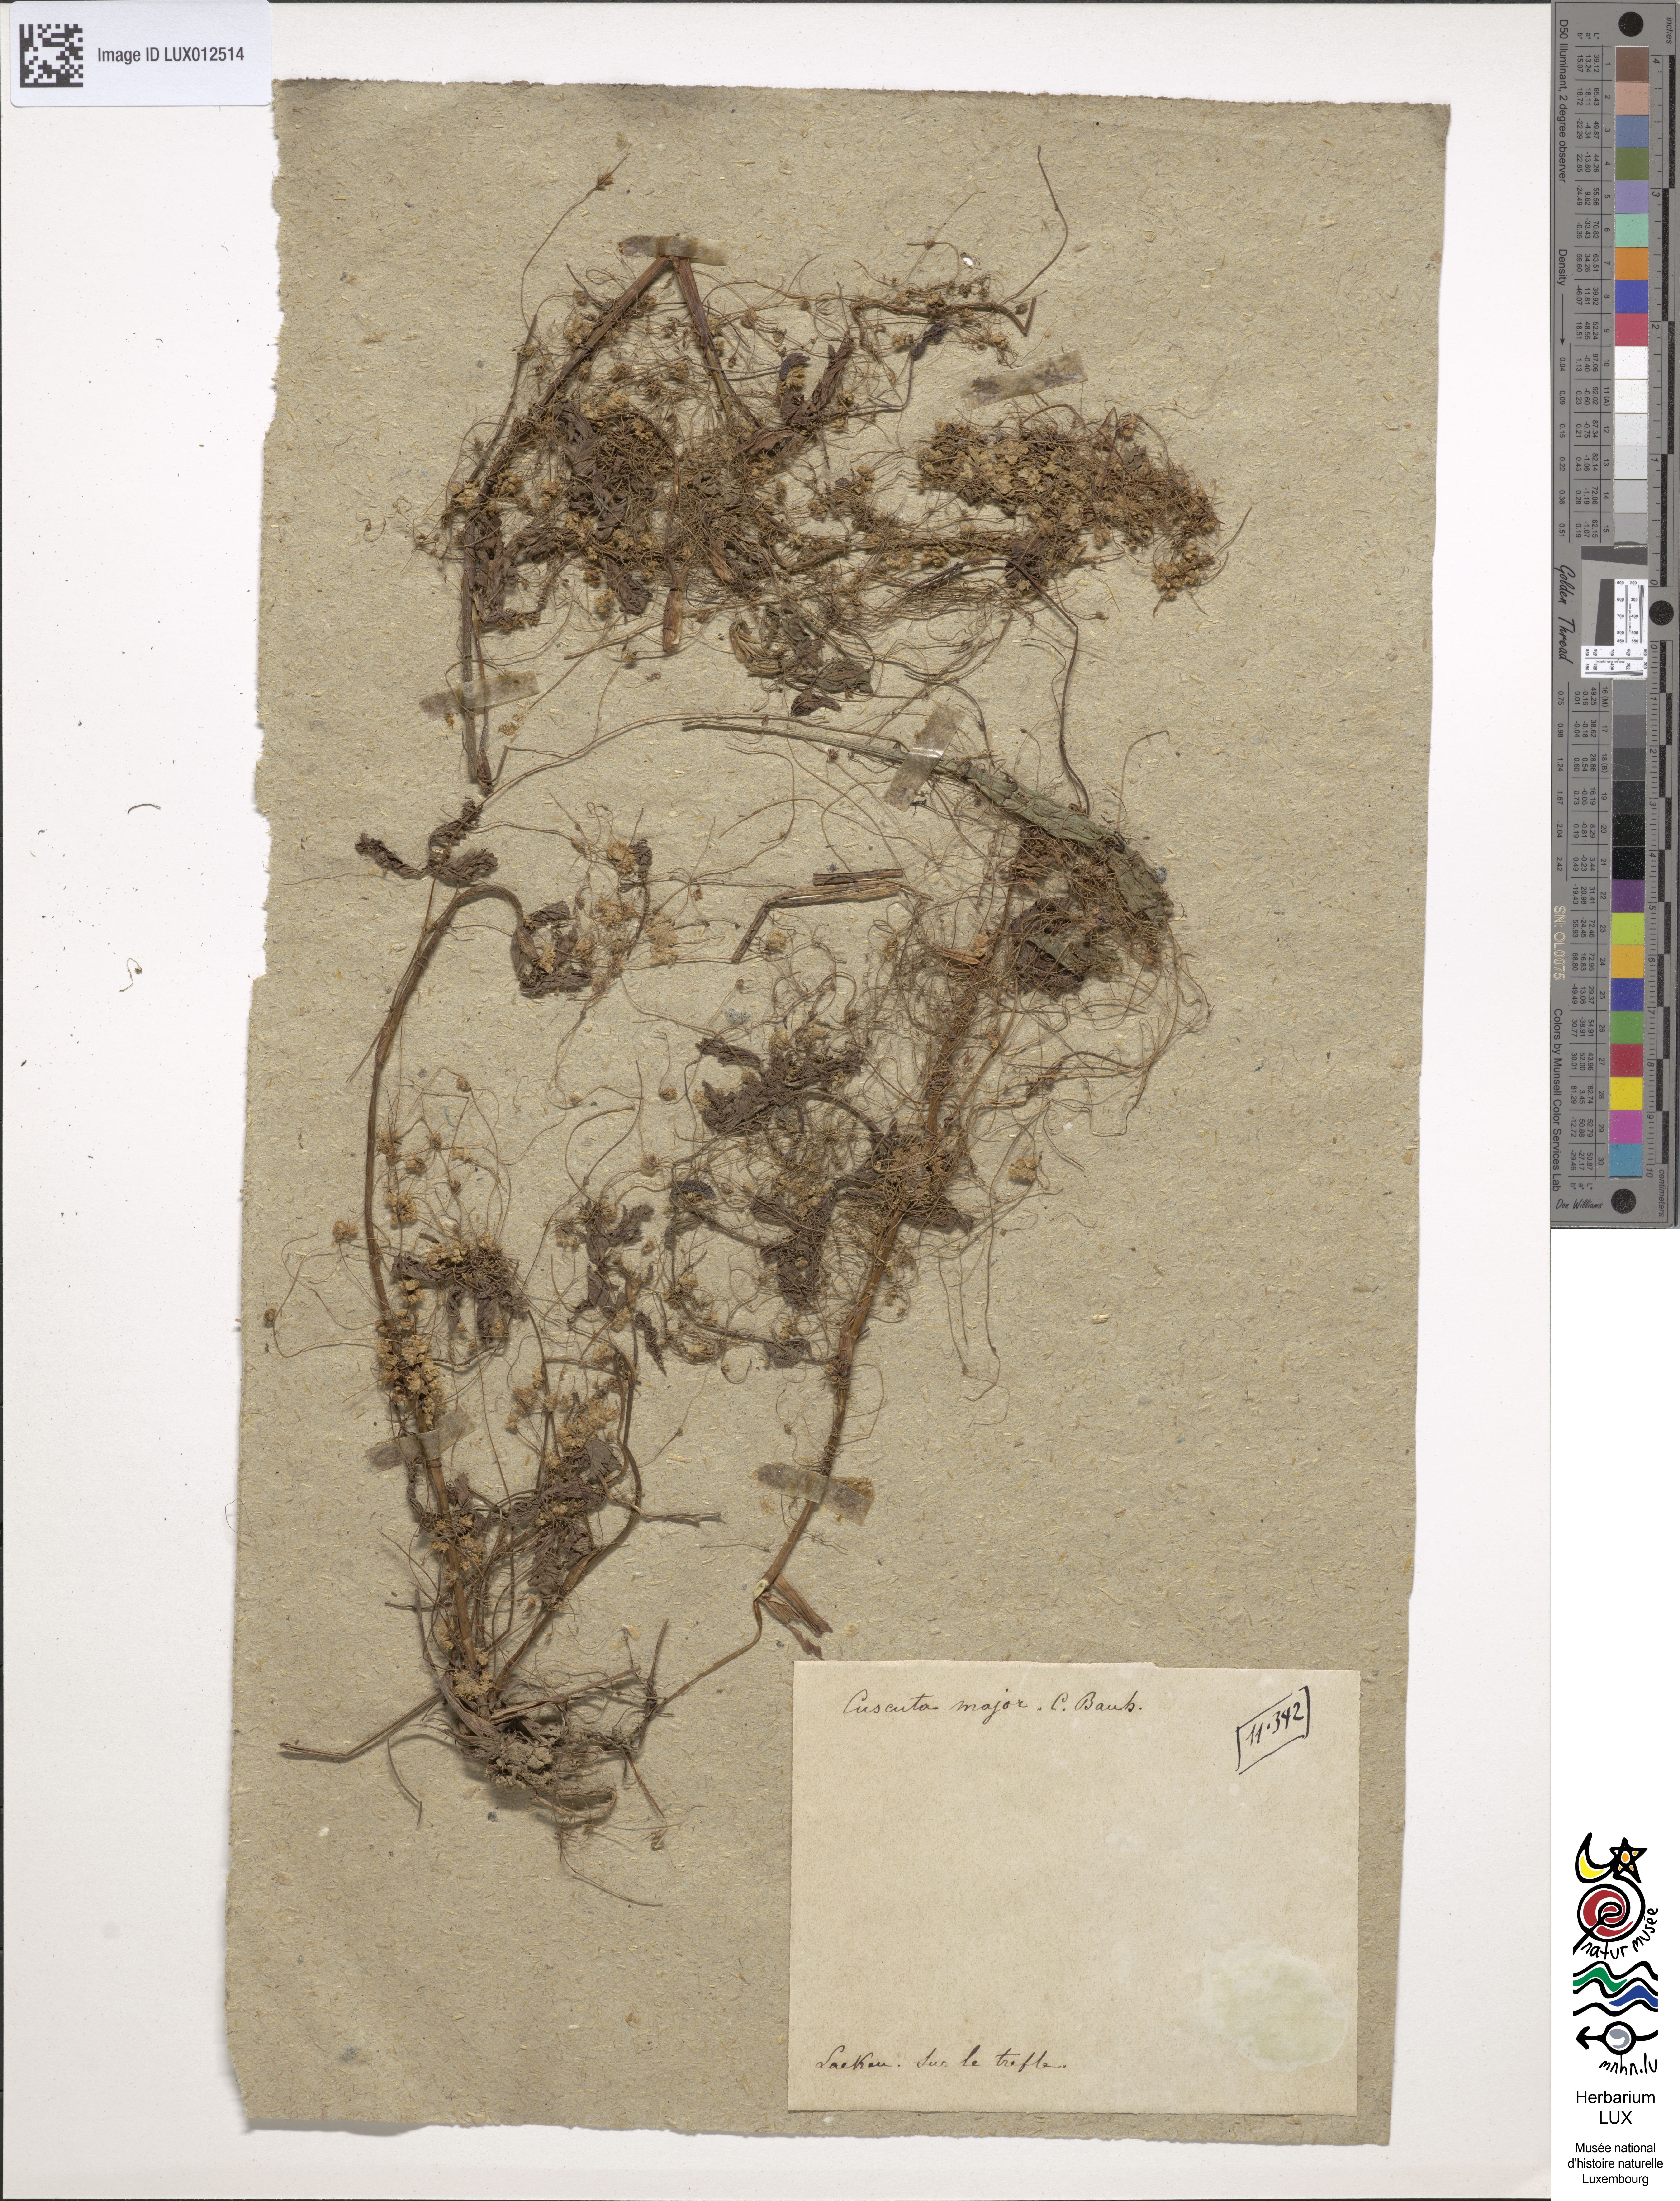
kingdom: Plantae
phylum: Tracheophyta
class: Magnoliopsida
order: Solanales
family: Convolvulaceae
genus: Cuscuta
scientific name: Cuscuta europaea
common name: Greater dodder
